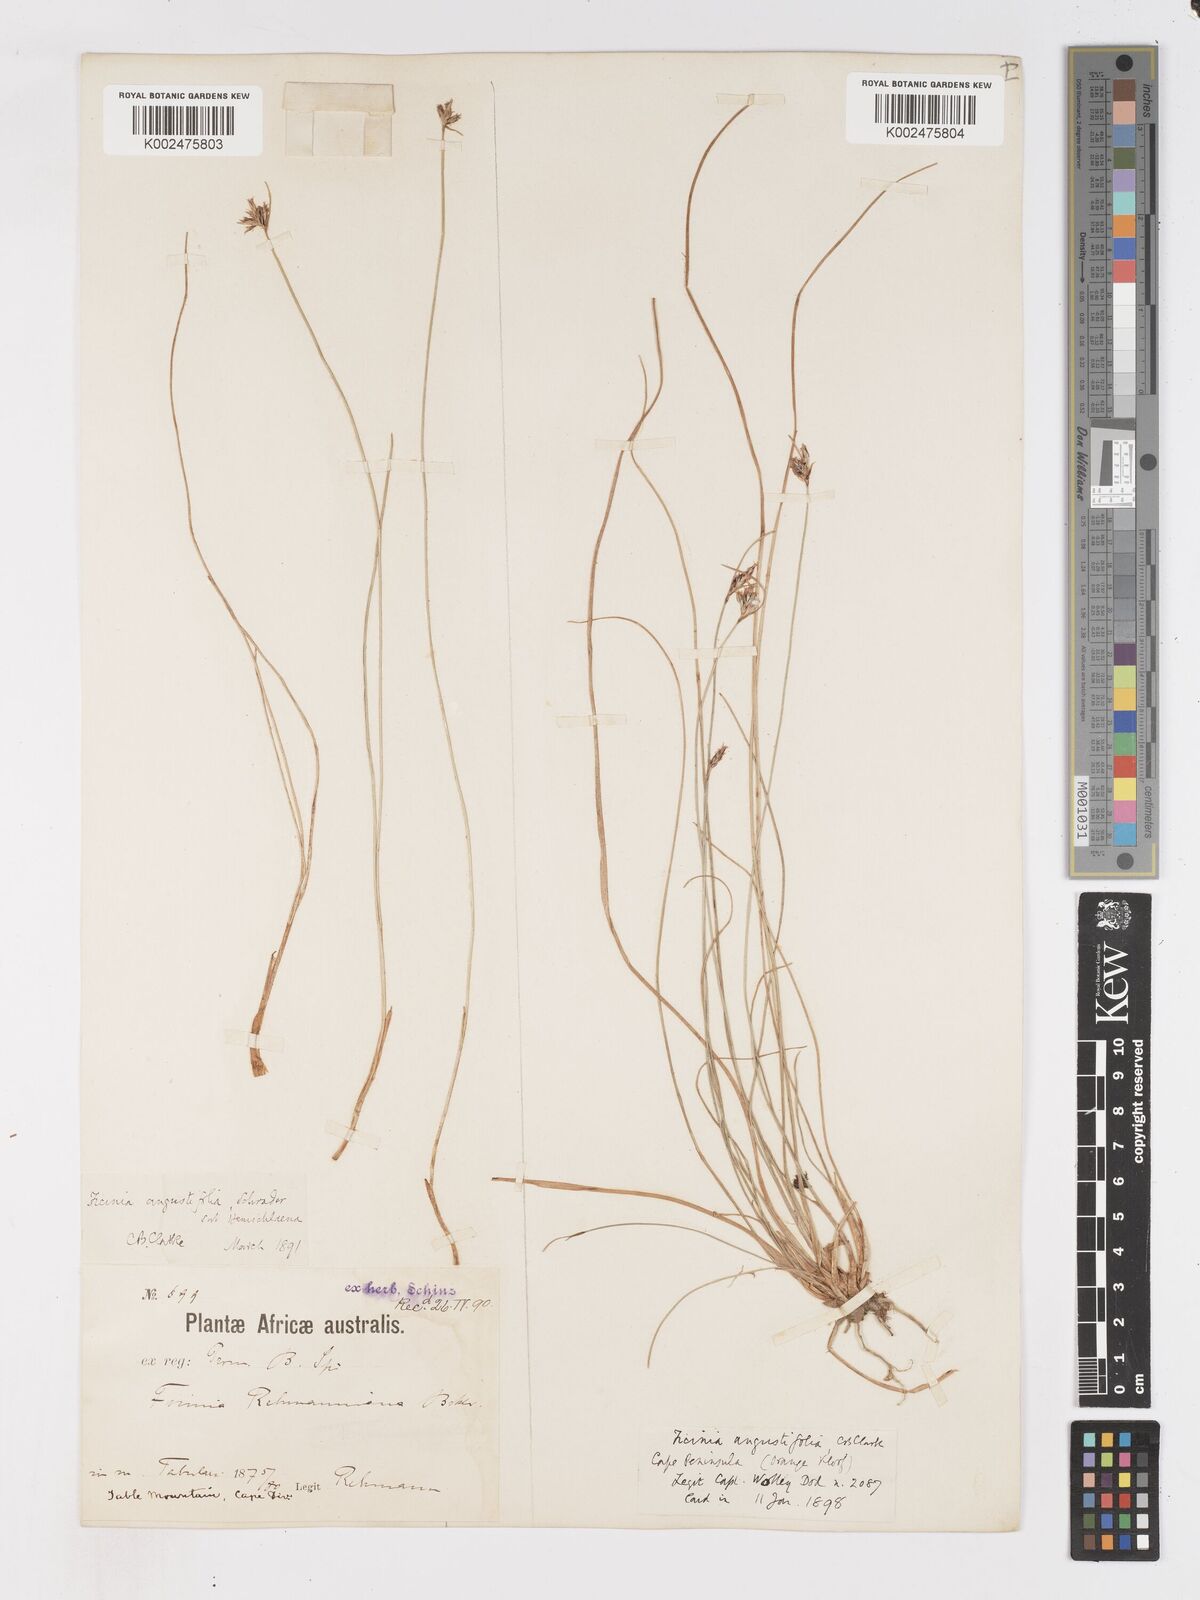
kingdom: Plantae
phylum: Tracheophyta
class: Liliopsida
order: Poales
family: Cyperaceae
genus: Ficinia
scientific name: Ficinia angustifolia
